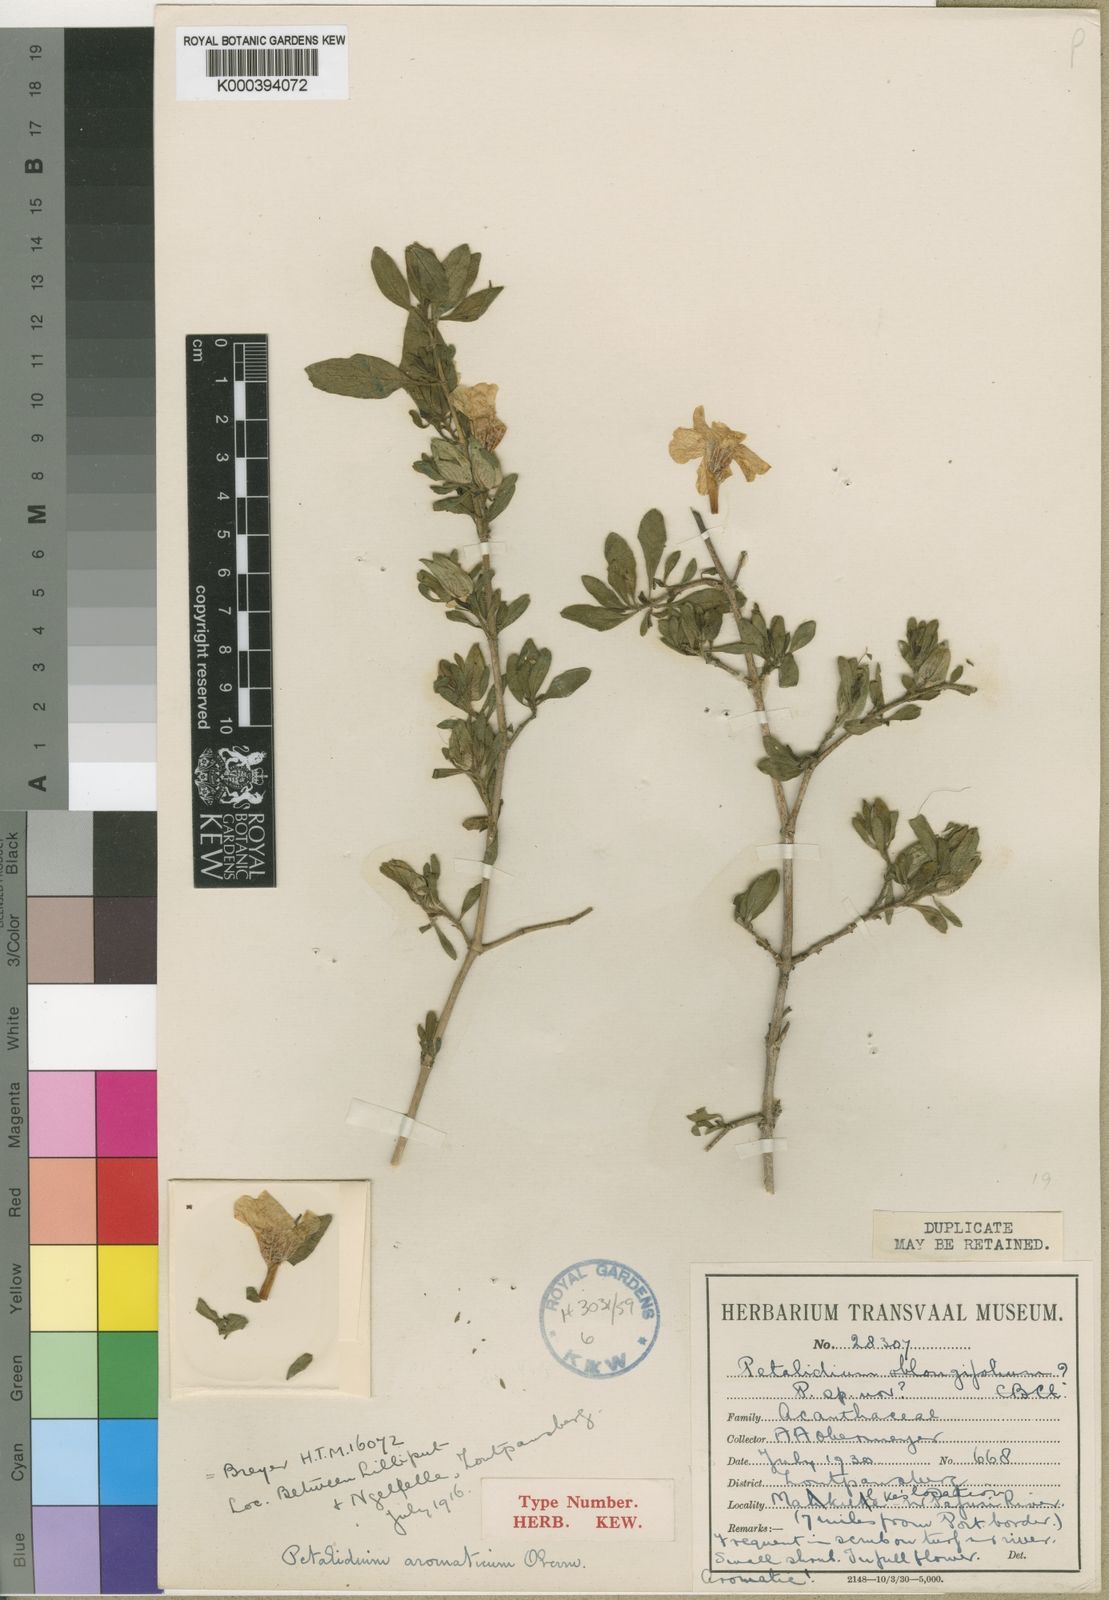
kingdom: Plantae
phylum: Tracheophyta
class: Magnoliopsida
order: Lamiales
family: Acanthaceae
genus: Petalidium
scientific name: Petalidium aromaticum
